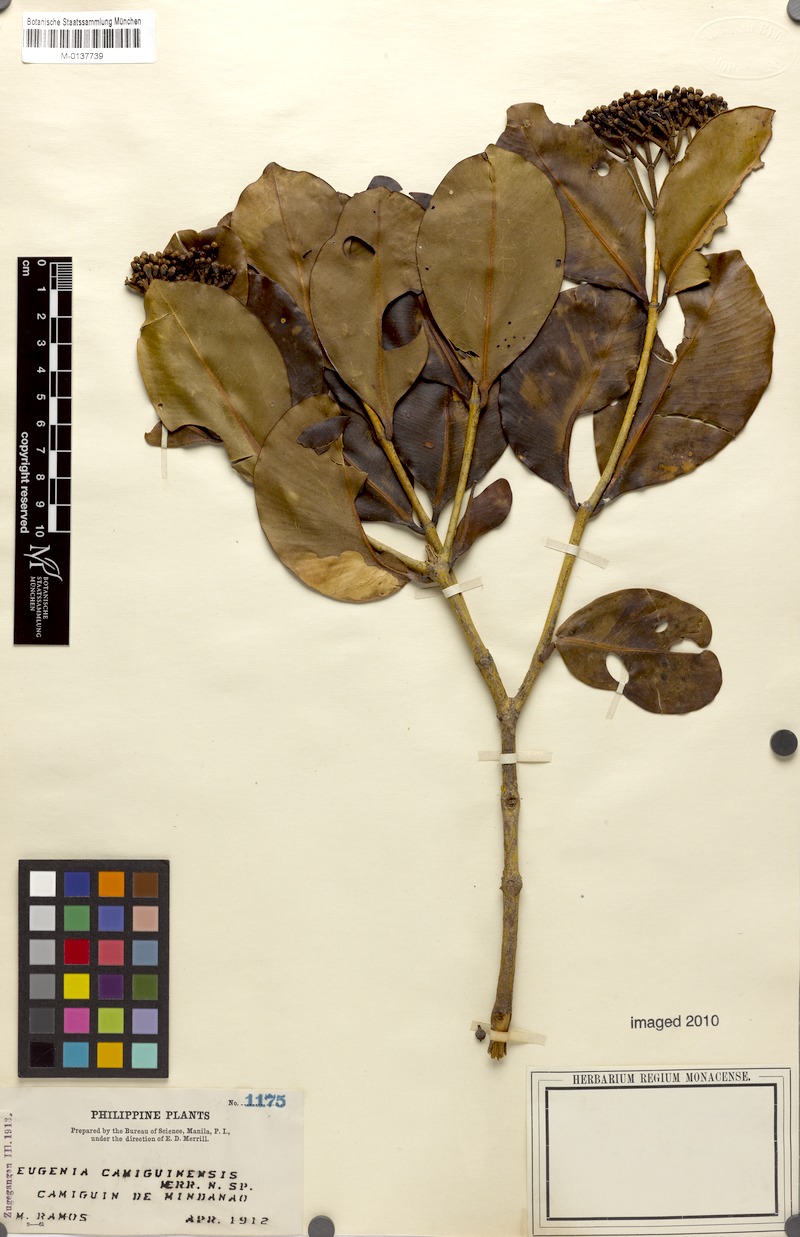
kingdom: Plantae
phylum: Tracheophyta
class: Magnoliopsida
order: Myrtales
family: Myrtaceae
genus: Syzygium
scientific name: Syzygium incrassatum
